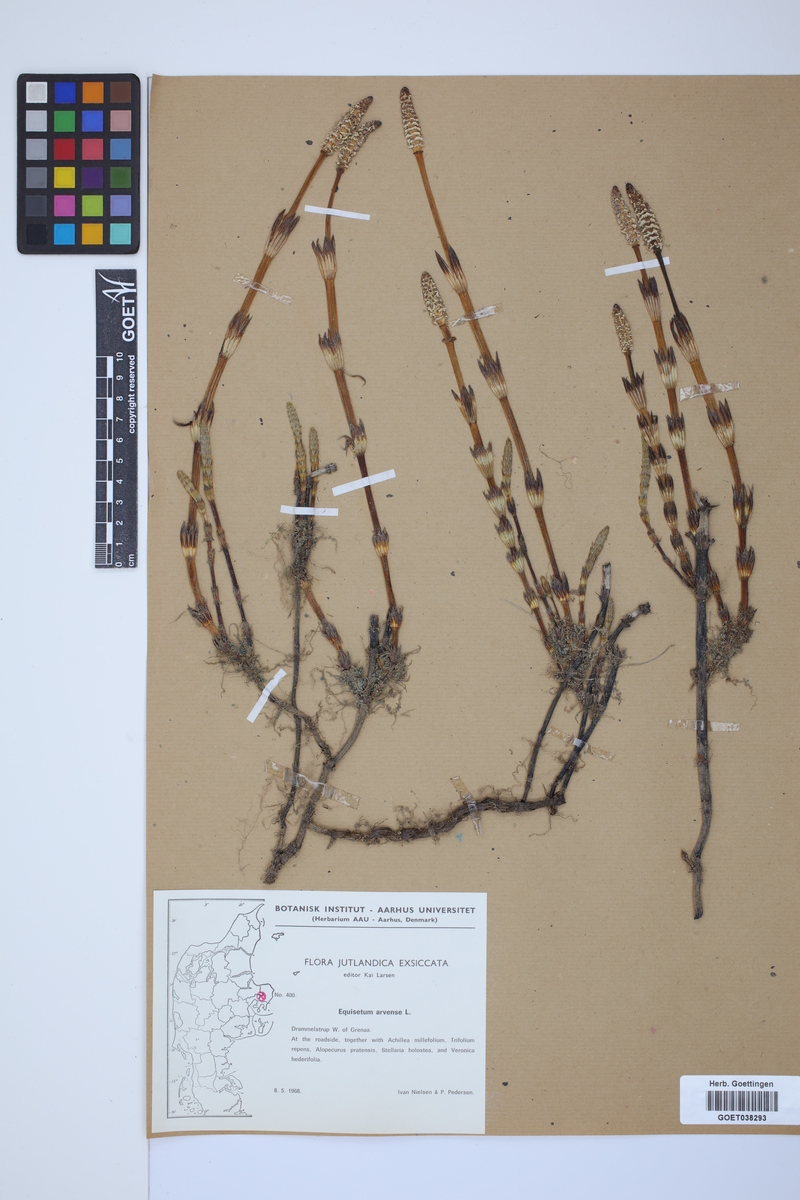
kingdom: Plantae
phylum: Tracheophyta
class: Polypodiopsida
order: Equisetales
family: Equisetaceae
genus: Equisetum
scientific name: Equisetum arvense
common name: Field horsetail
